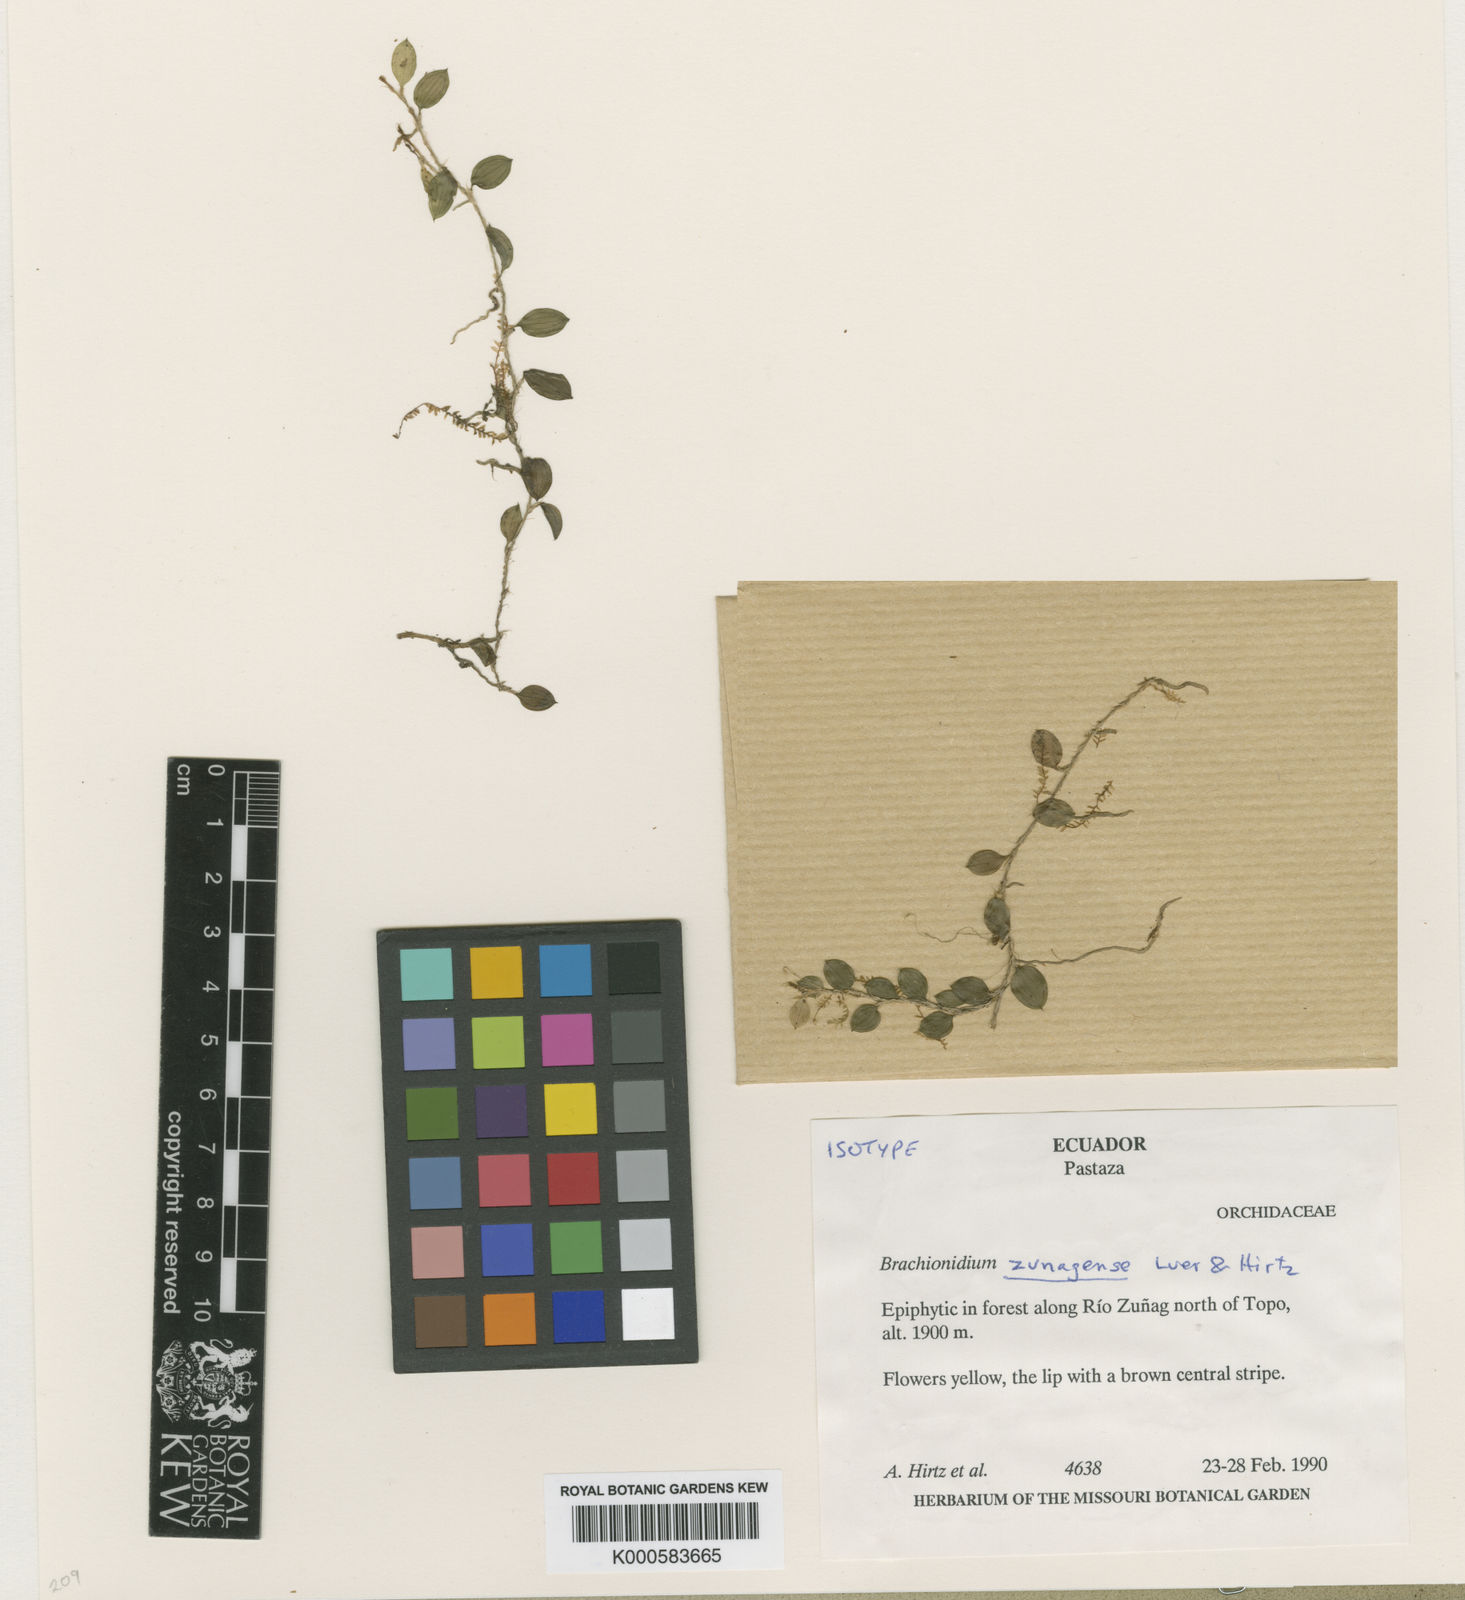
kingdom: Plantae
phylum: Tracheophyta
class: Liliopsida
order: Asparagales
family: Orchidaceae
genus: Brachionidium
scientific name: Brachionidium tuberculatum
